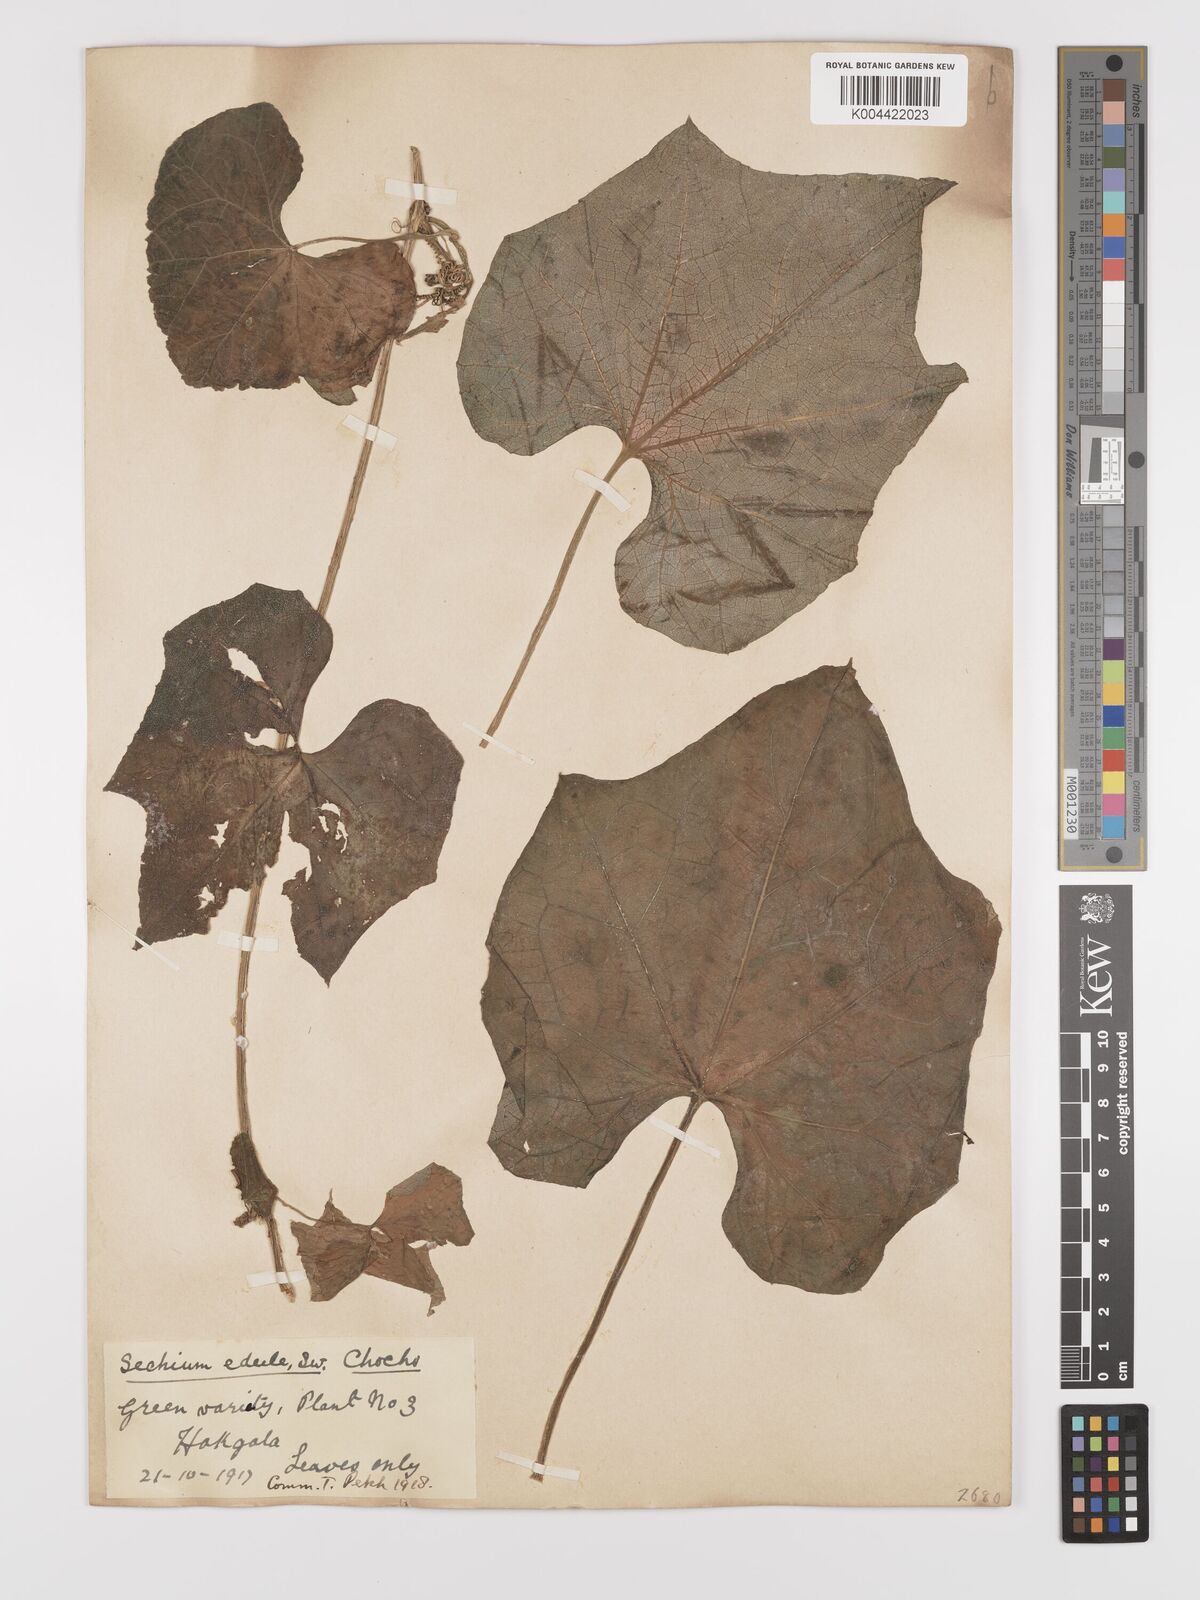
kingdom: Plantae
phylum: Tracheophyta
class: Magnoliopsida
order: Cucurbitales
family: Cucurbitaceae
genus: Sechium
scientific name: Sechium edule
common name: Chayote
